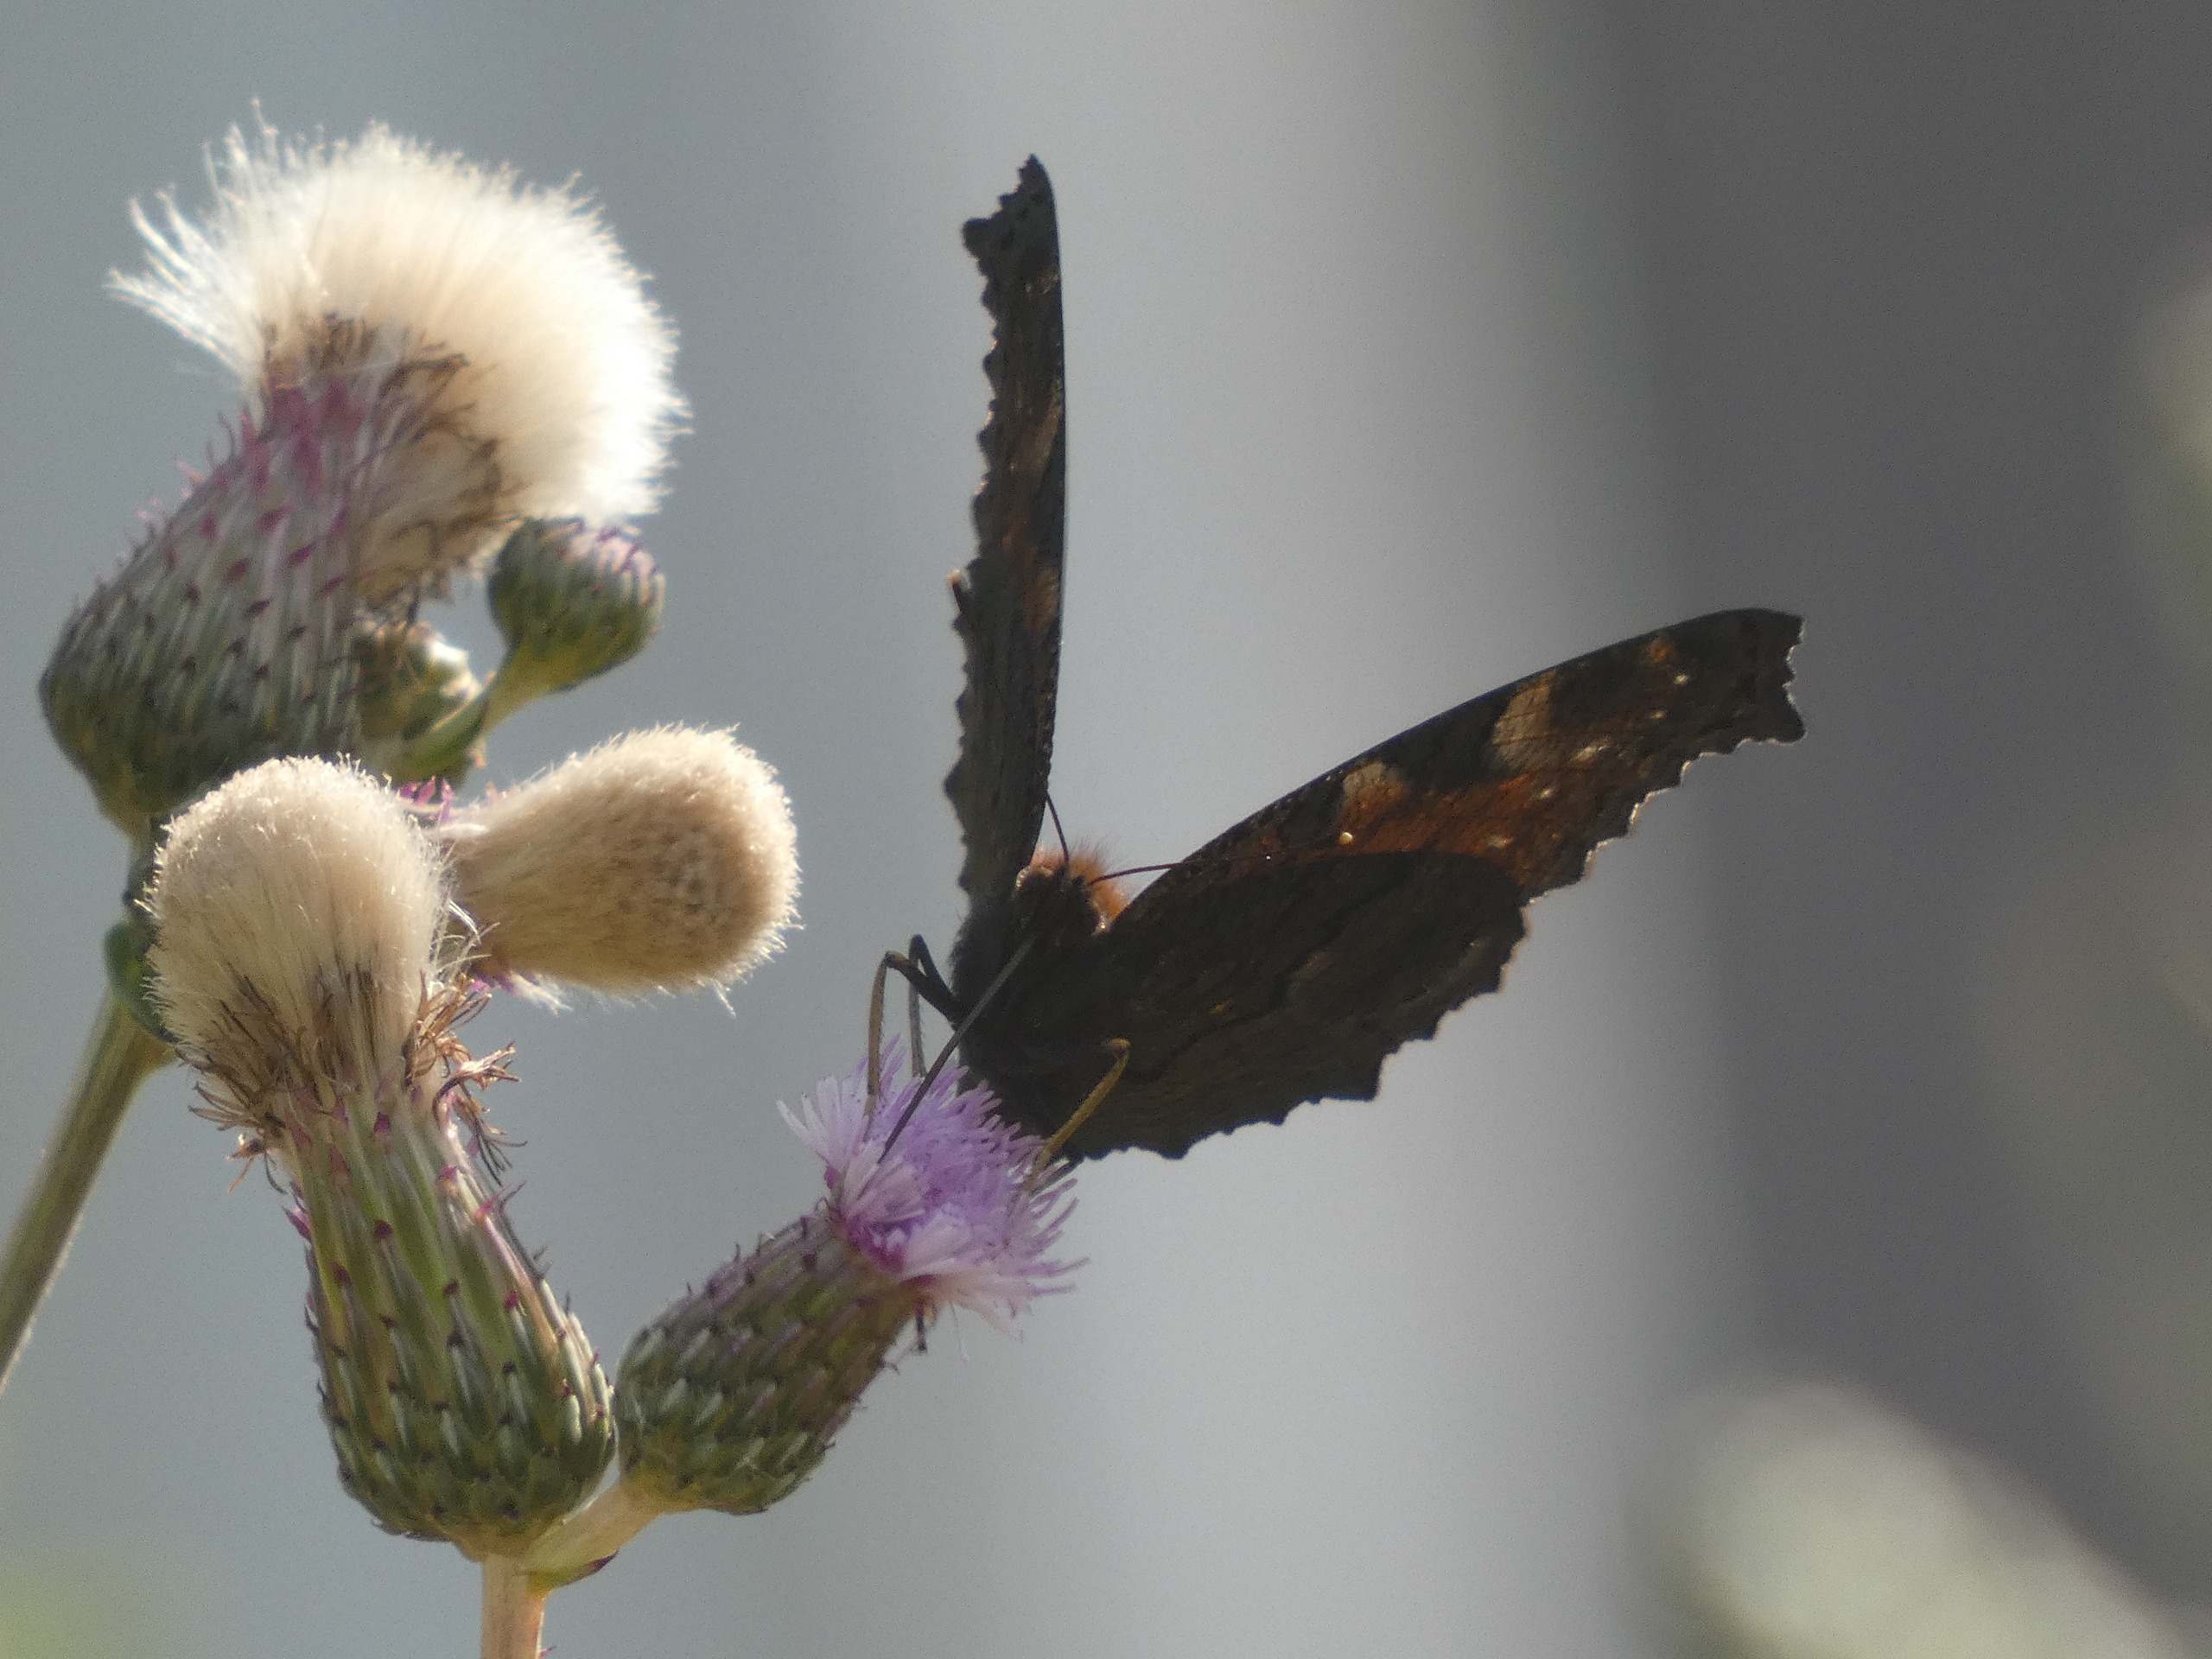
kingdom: Animalia
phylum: Arthropoda
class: Insecta
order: Lepidoptera
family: Nymphalidae
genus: Aglais
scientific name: Aglais io
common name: Dagpåfugleøje
